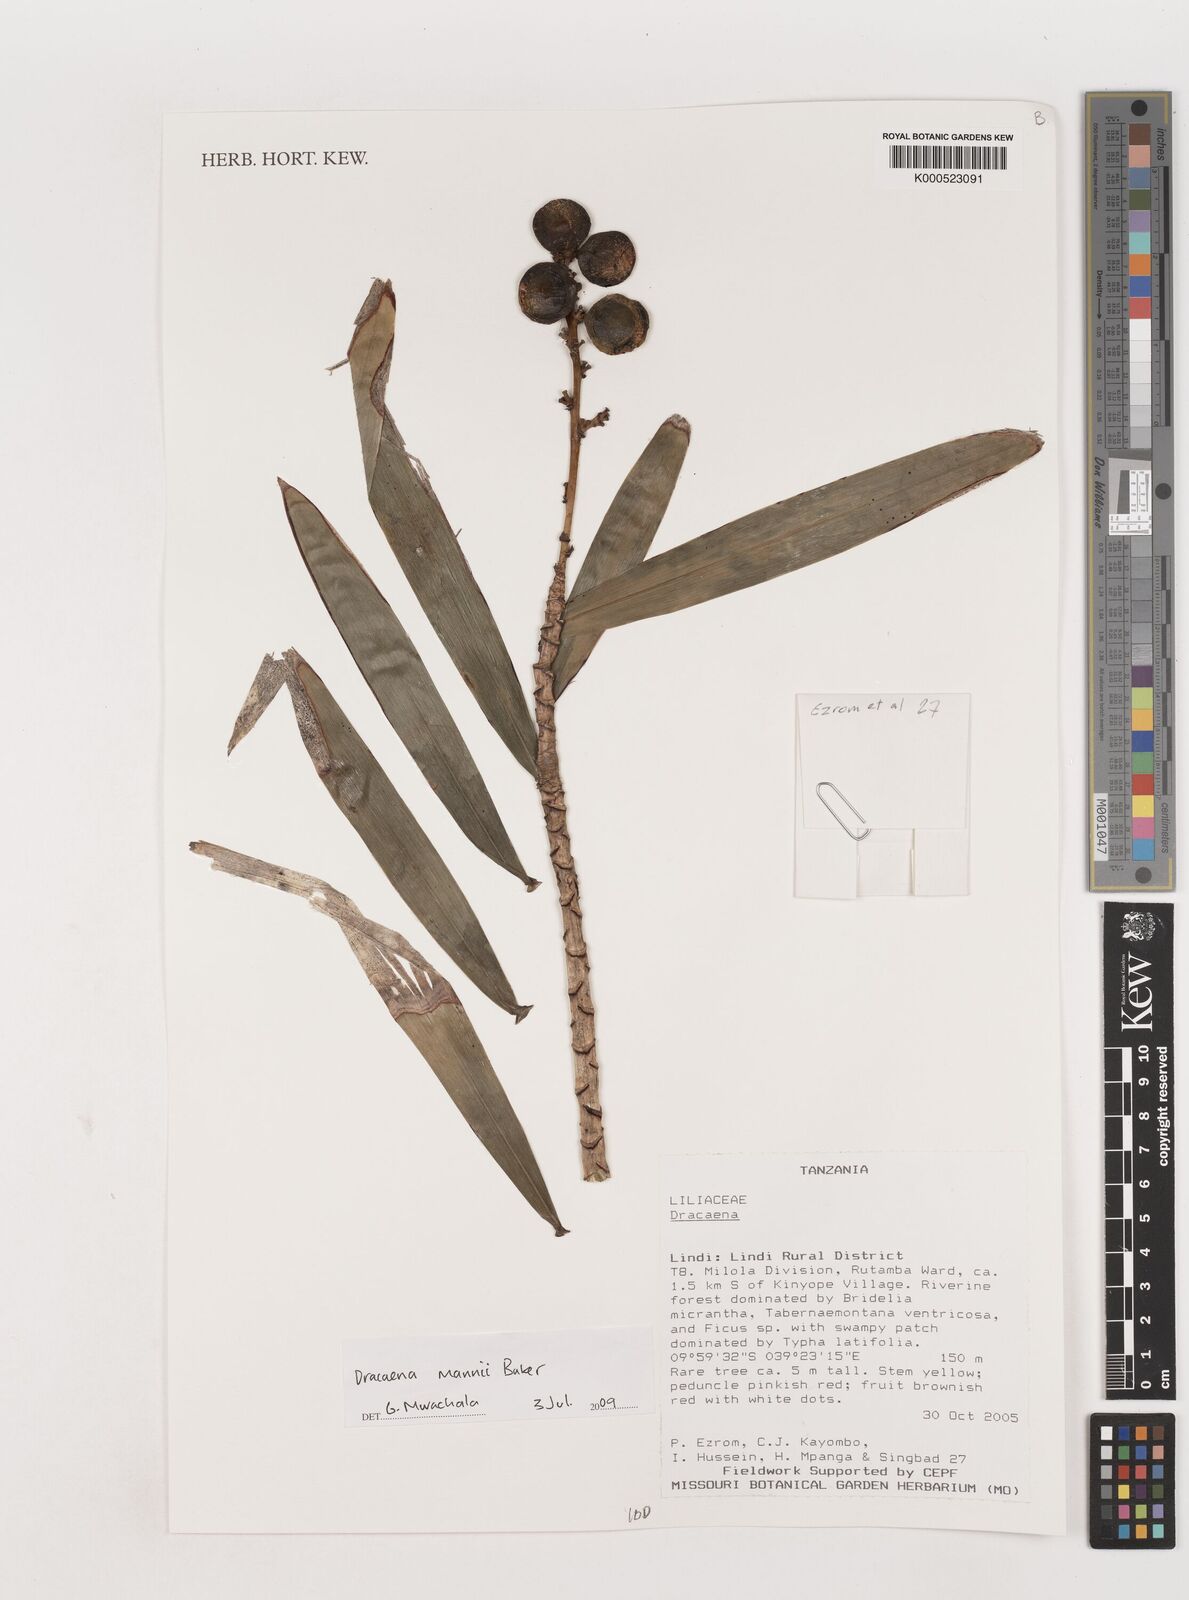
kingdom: Plantae
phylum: Tracheophyta
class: Liliopsida
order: Asparagales
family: Asparagaceae
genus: Dracaena
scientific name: Dracaena mannii
